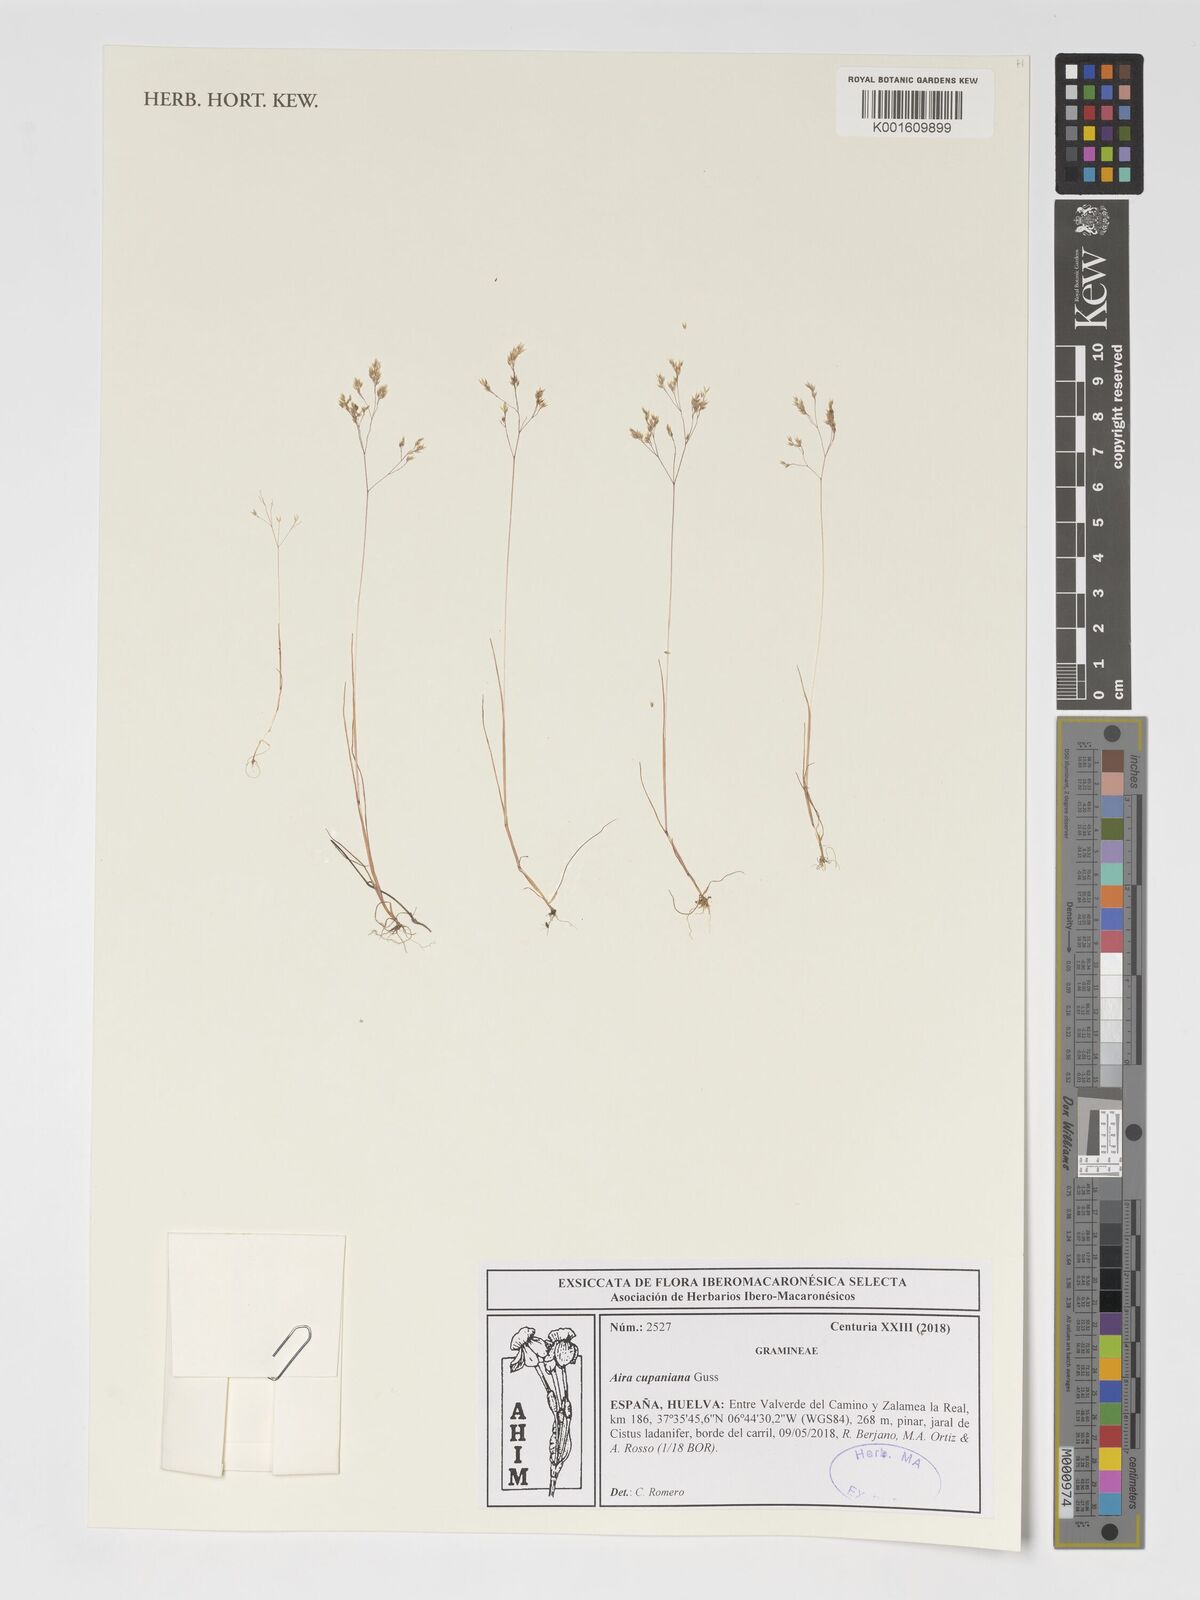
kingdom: Plantae
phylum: Tracheophyta
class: Liliopsida
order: Poales
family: Poaceae
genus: Aira
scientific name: Aira cupaniana
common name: Silver hairgrass
